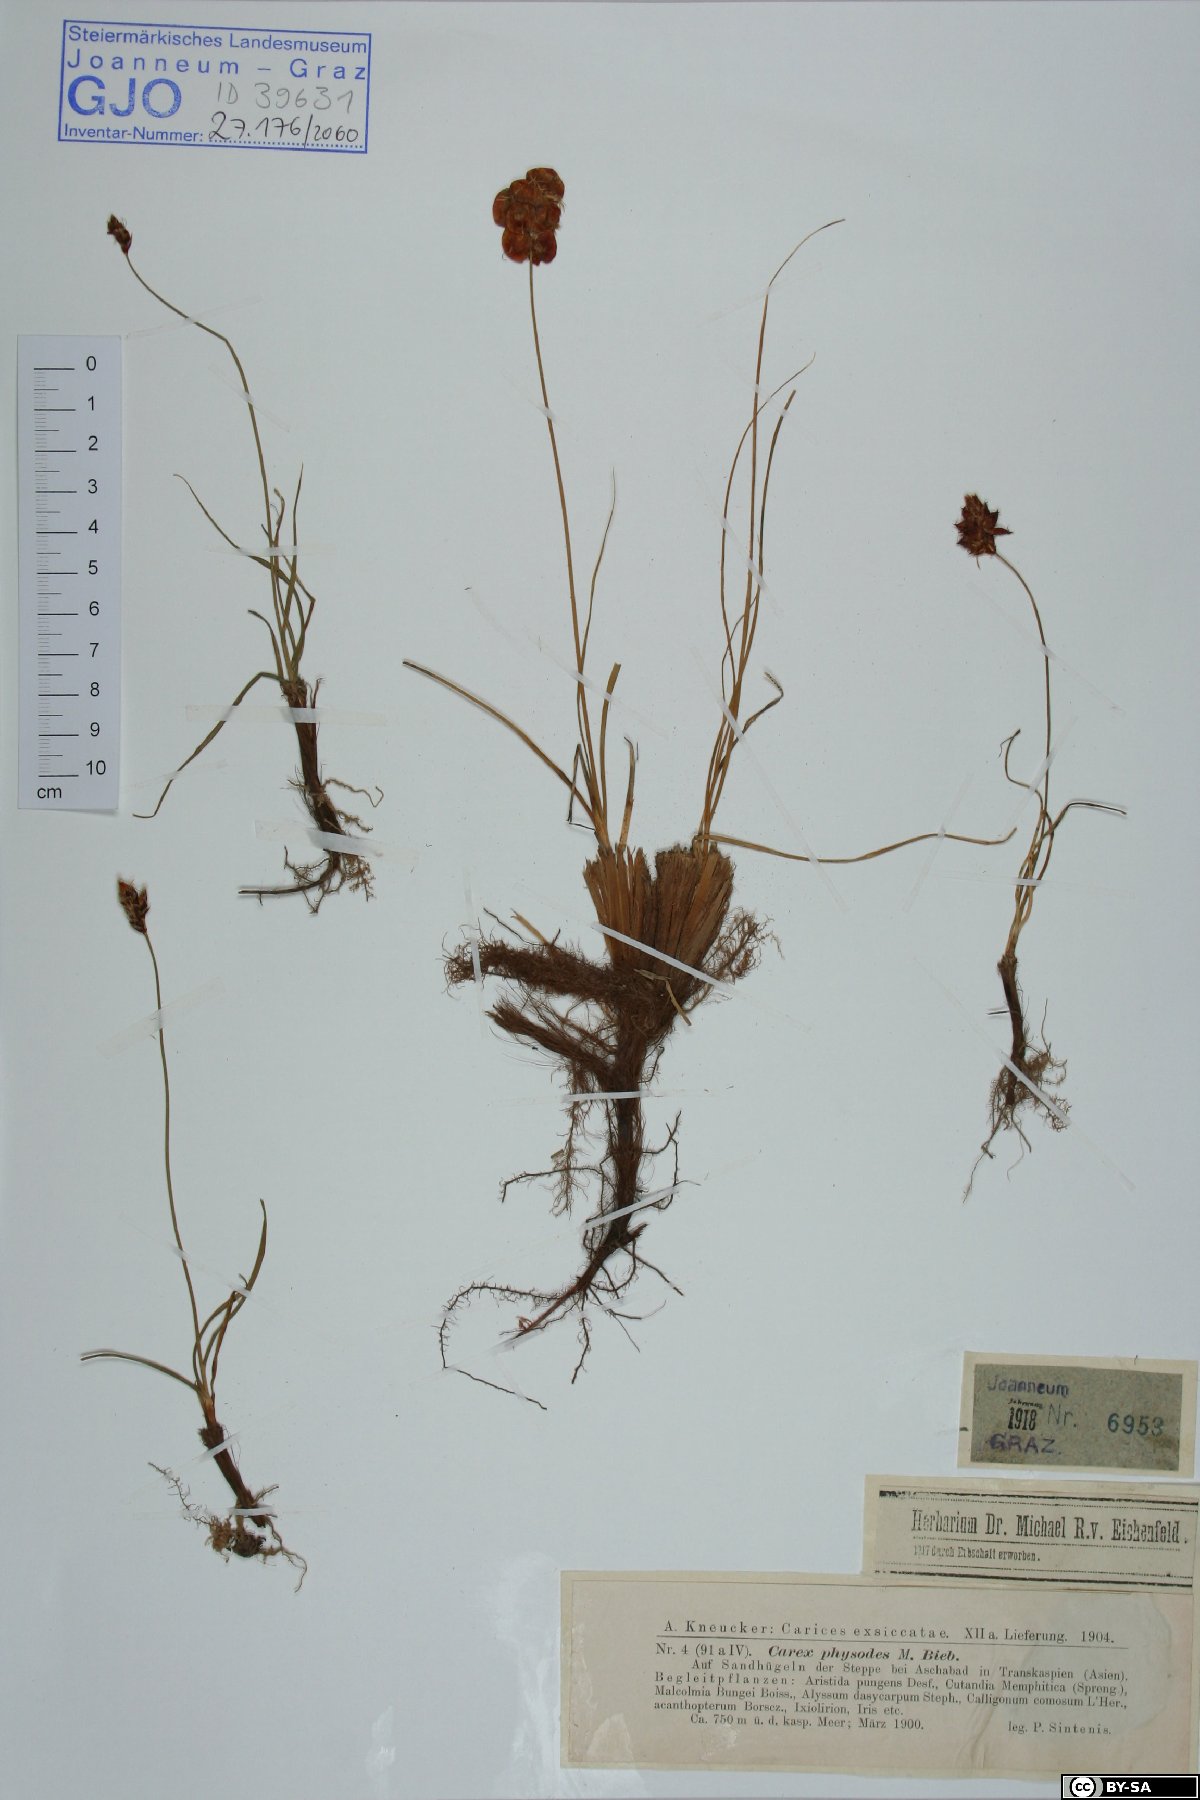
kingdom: Plantae
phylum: Tracheophyta
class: Liliopsida
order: Poales
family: Cyperaceae
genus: Carex
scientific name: Carex physodes
